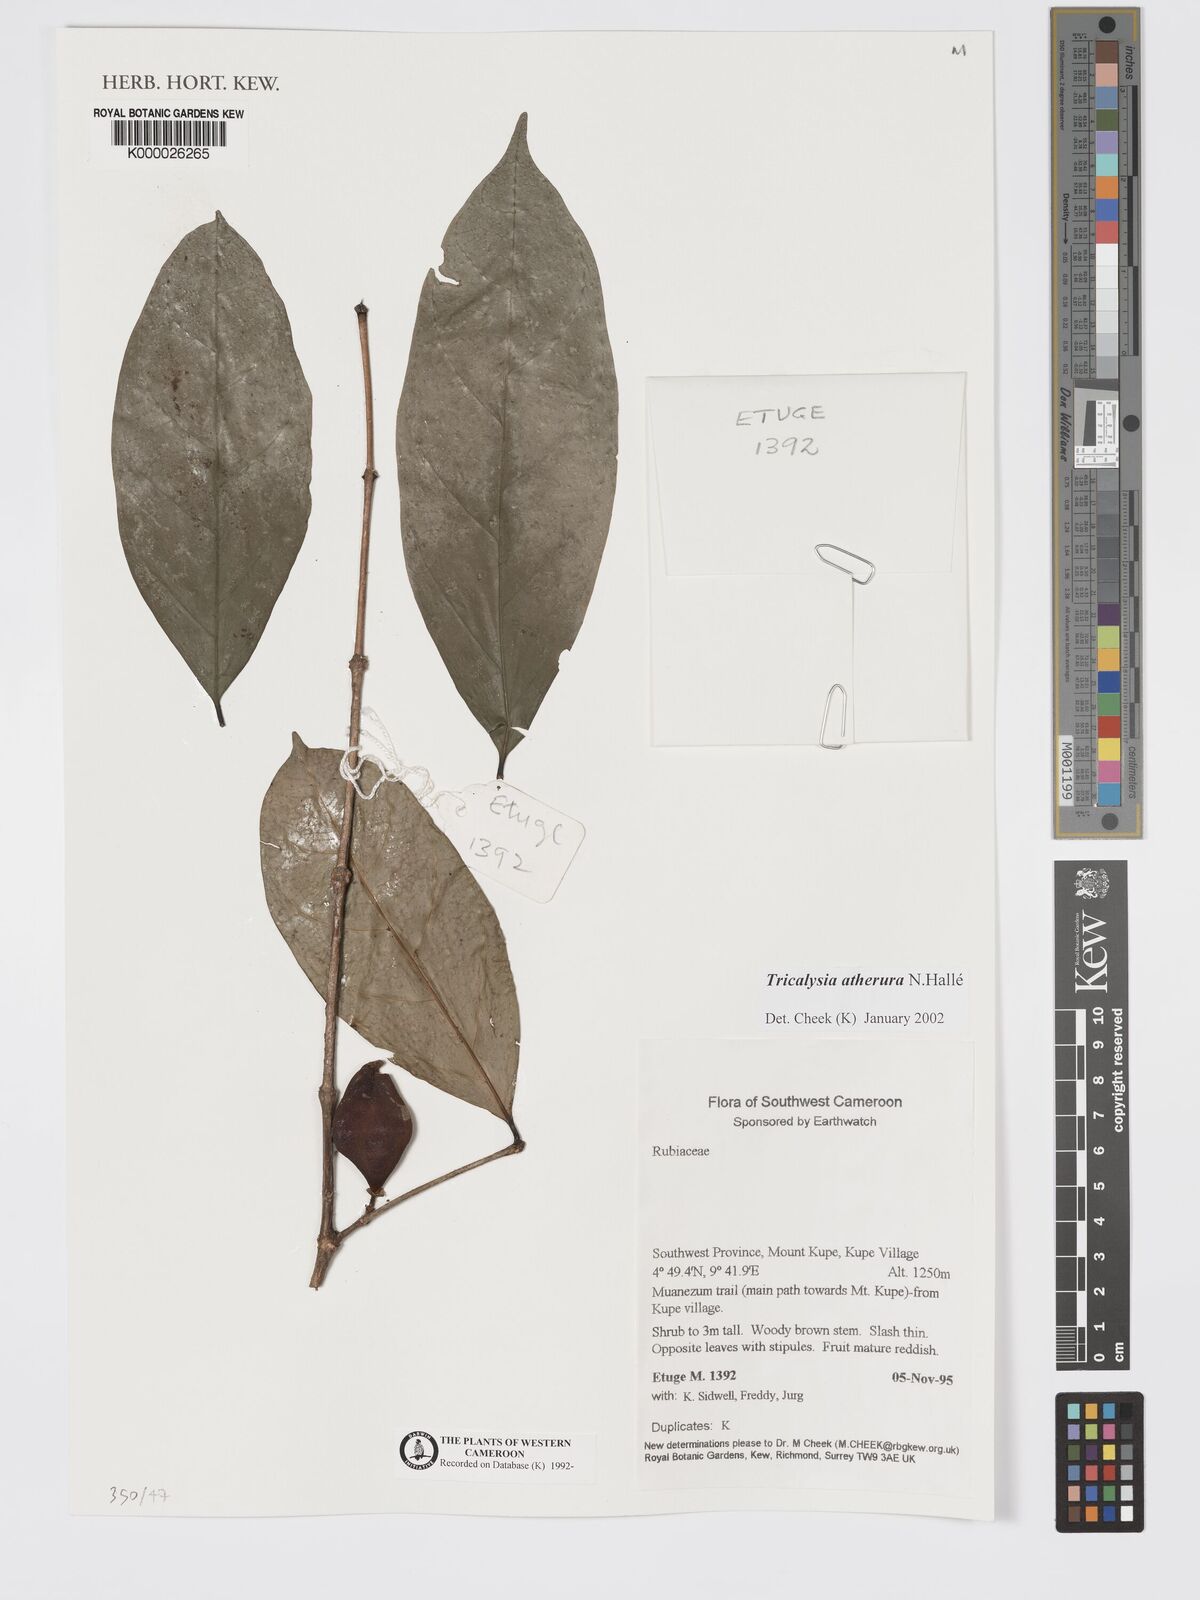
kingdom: Plantae
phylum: Tracheophyta
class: Magnoliopsida
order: Gentianales
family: Rubiaceae
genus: Tricalysia
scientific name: Tricalysia
